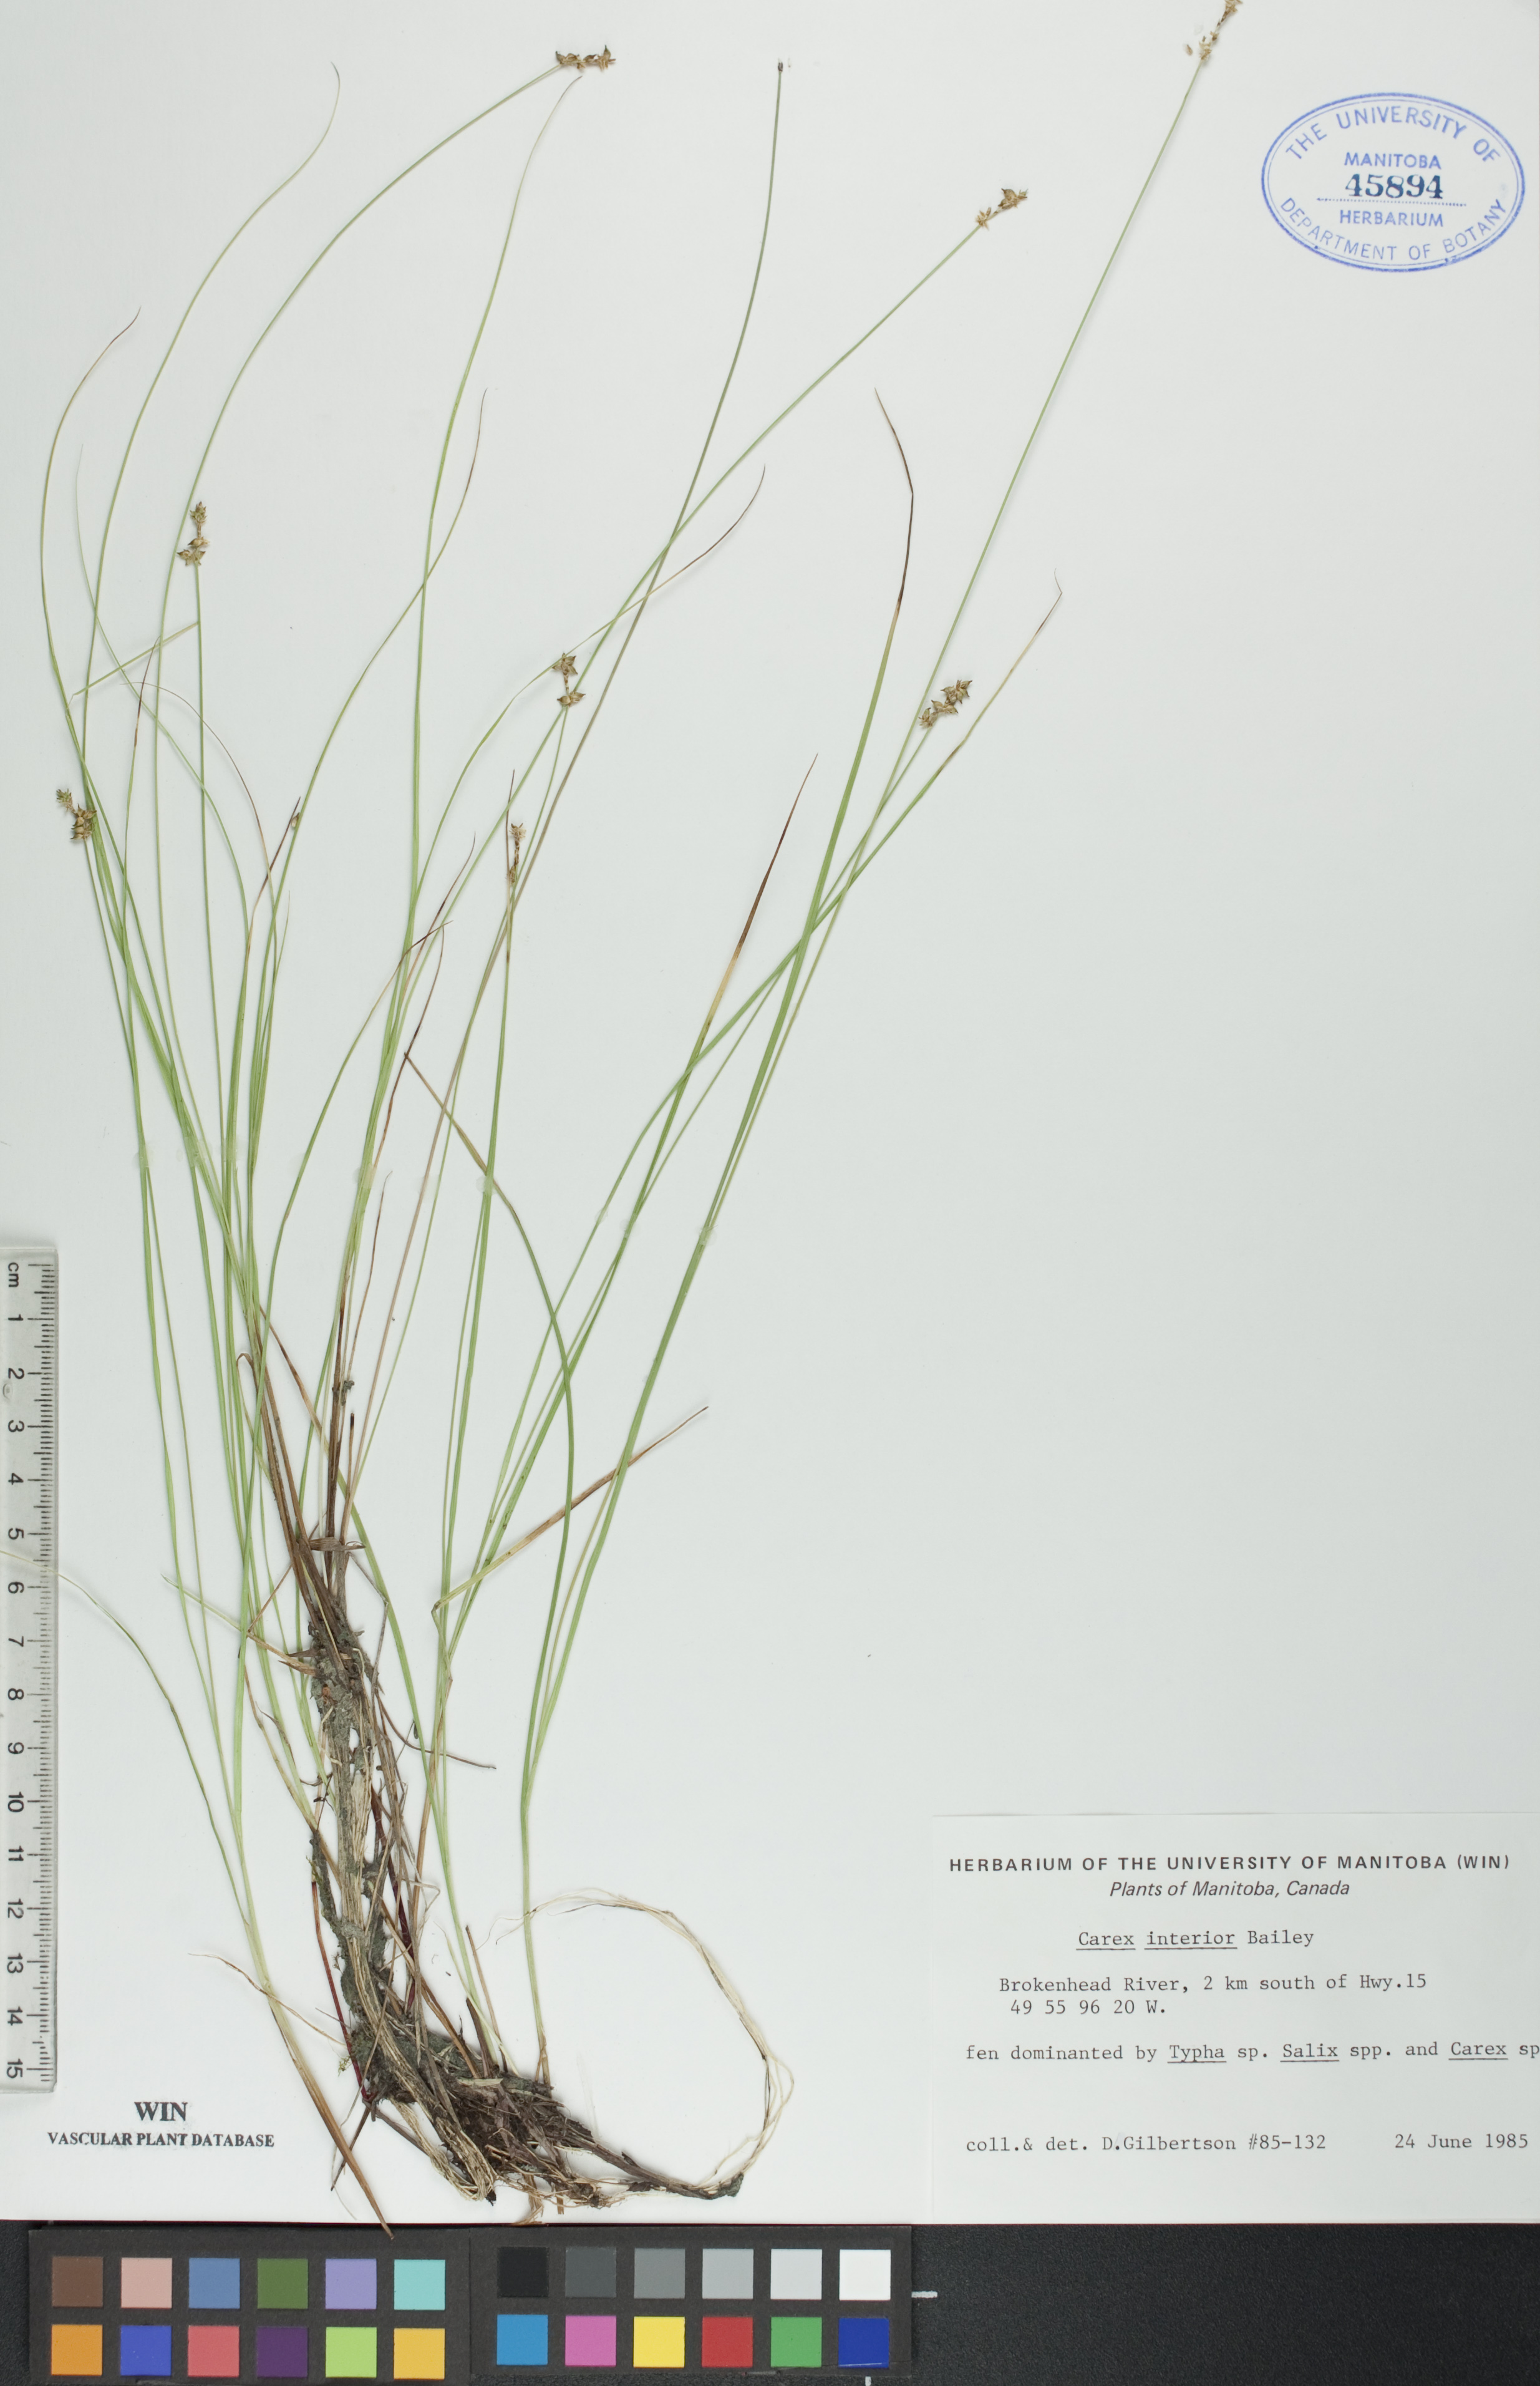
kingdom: Plantae
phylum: Tracheophyta
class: Liliopsida
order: Poales
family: Cyperaceae
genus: Carex
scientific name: Carex interior
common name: Inland sedge
